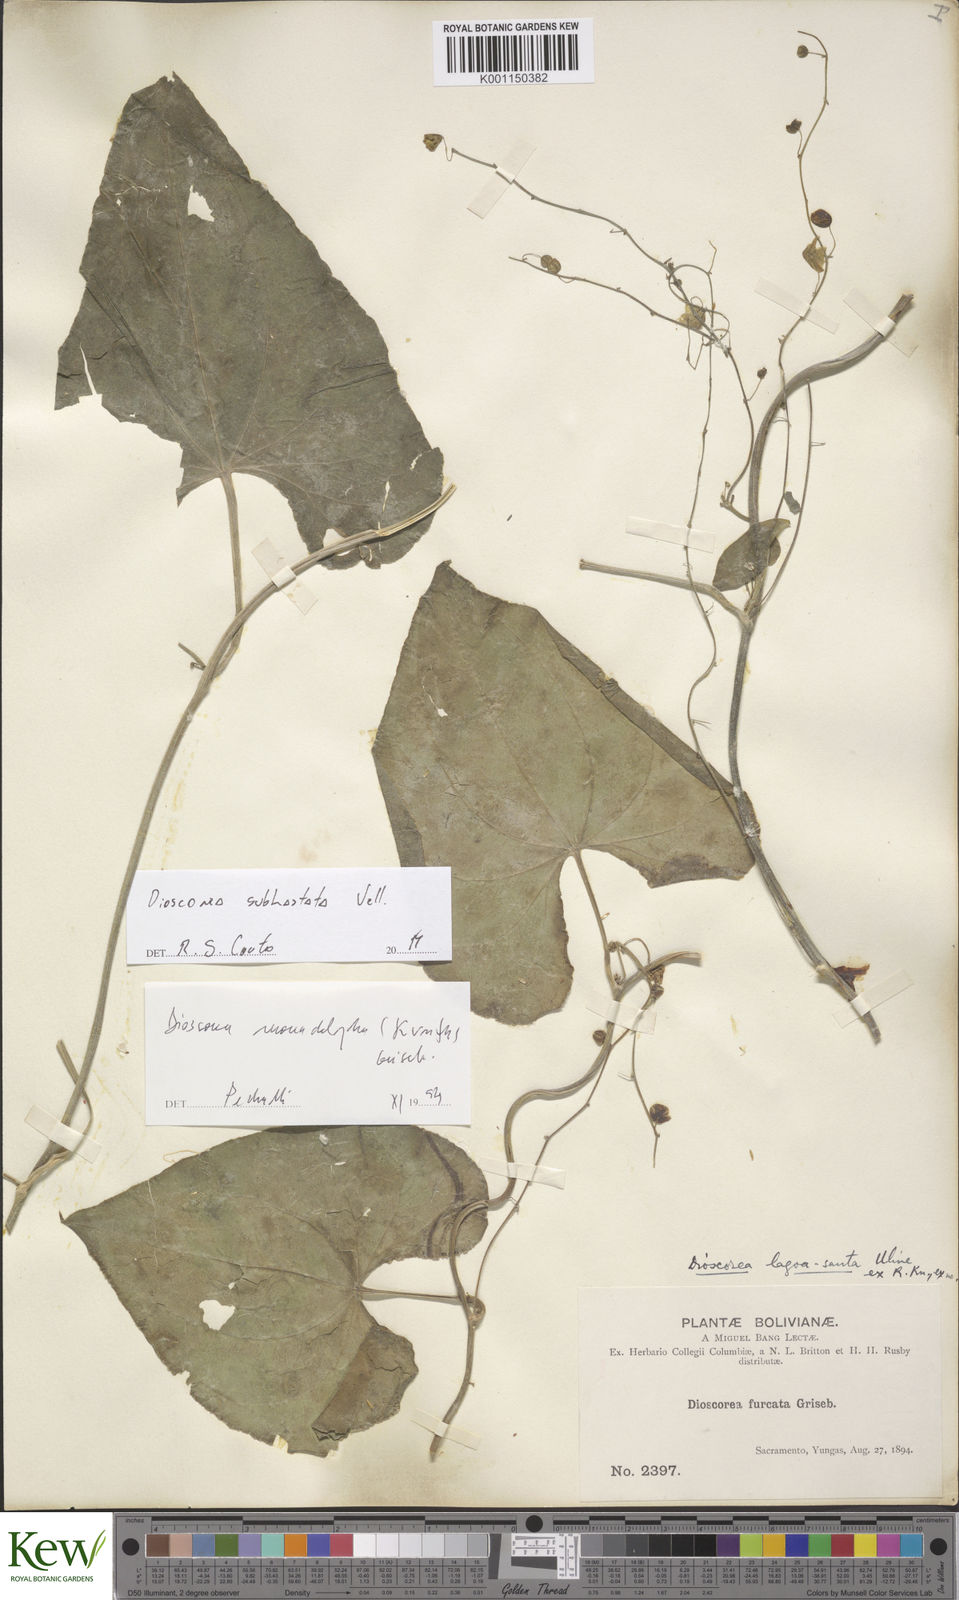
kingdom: Plantae
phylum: Tracheophyta
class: Liliopsida
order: Dioscoreales
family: Dioscoreaceae
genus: Dioscorea
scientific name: Dioscorea subhastata
